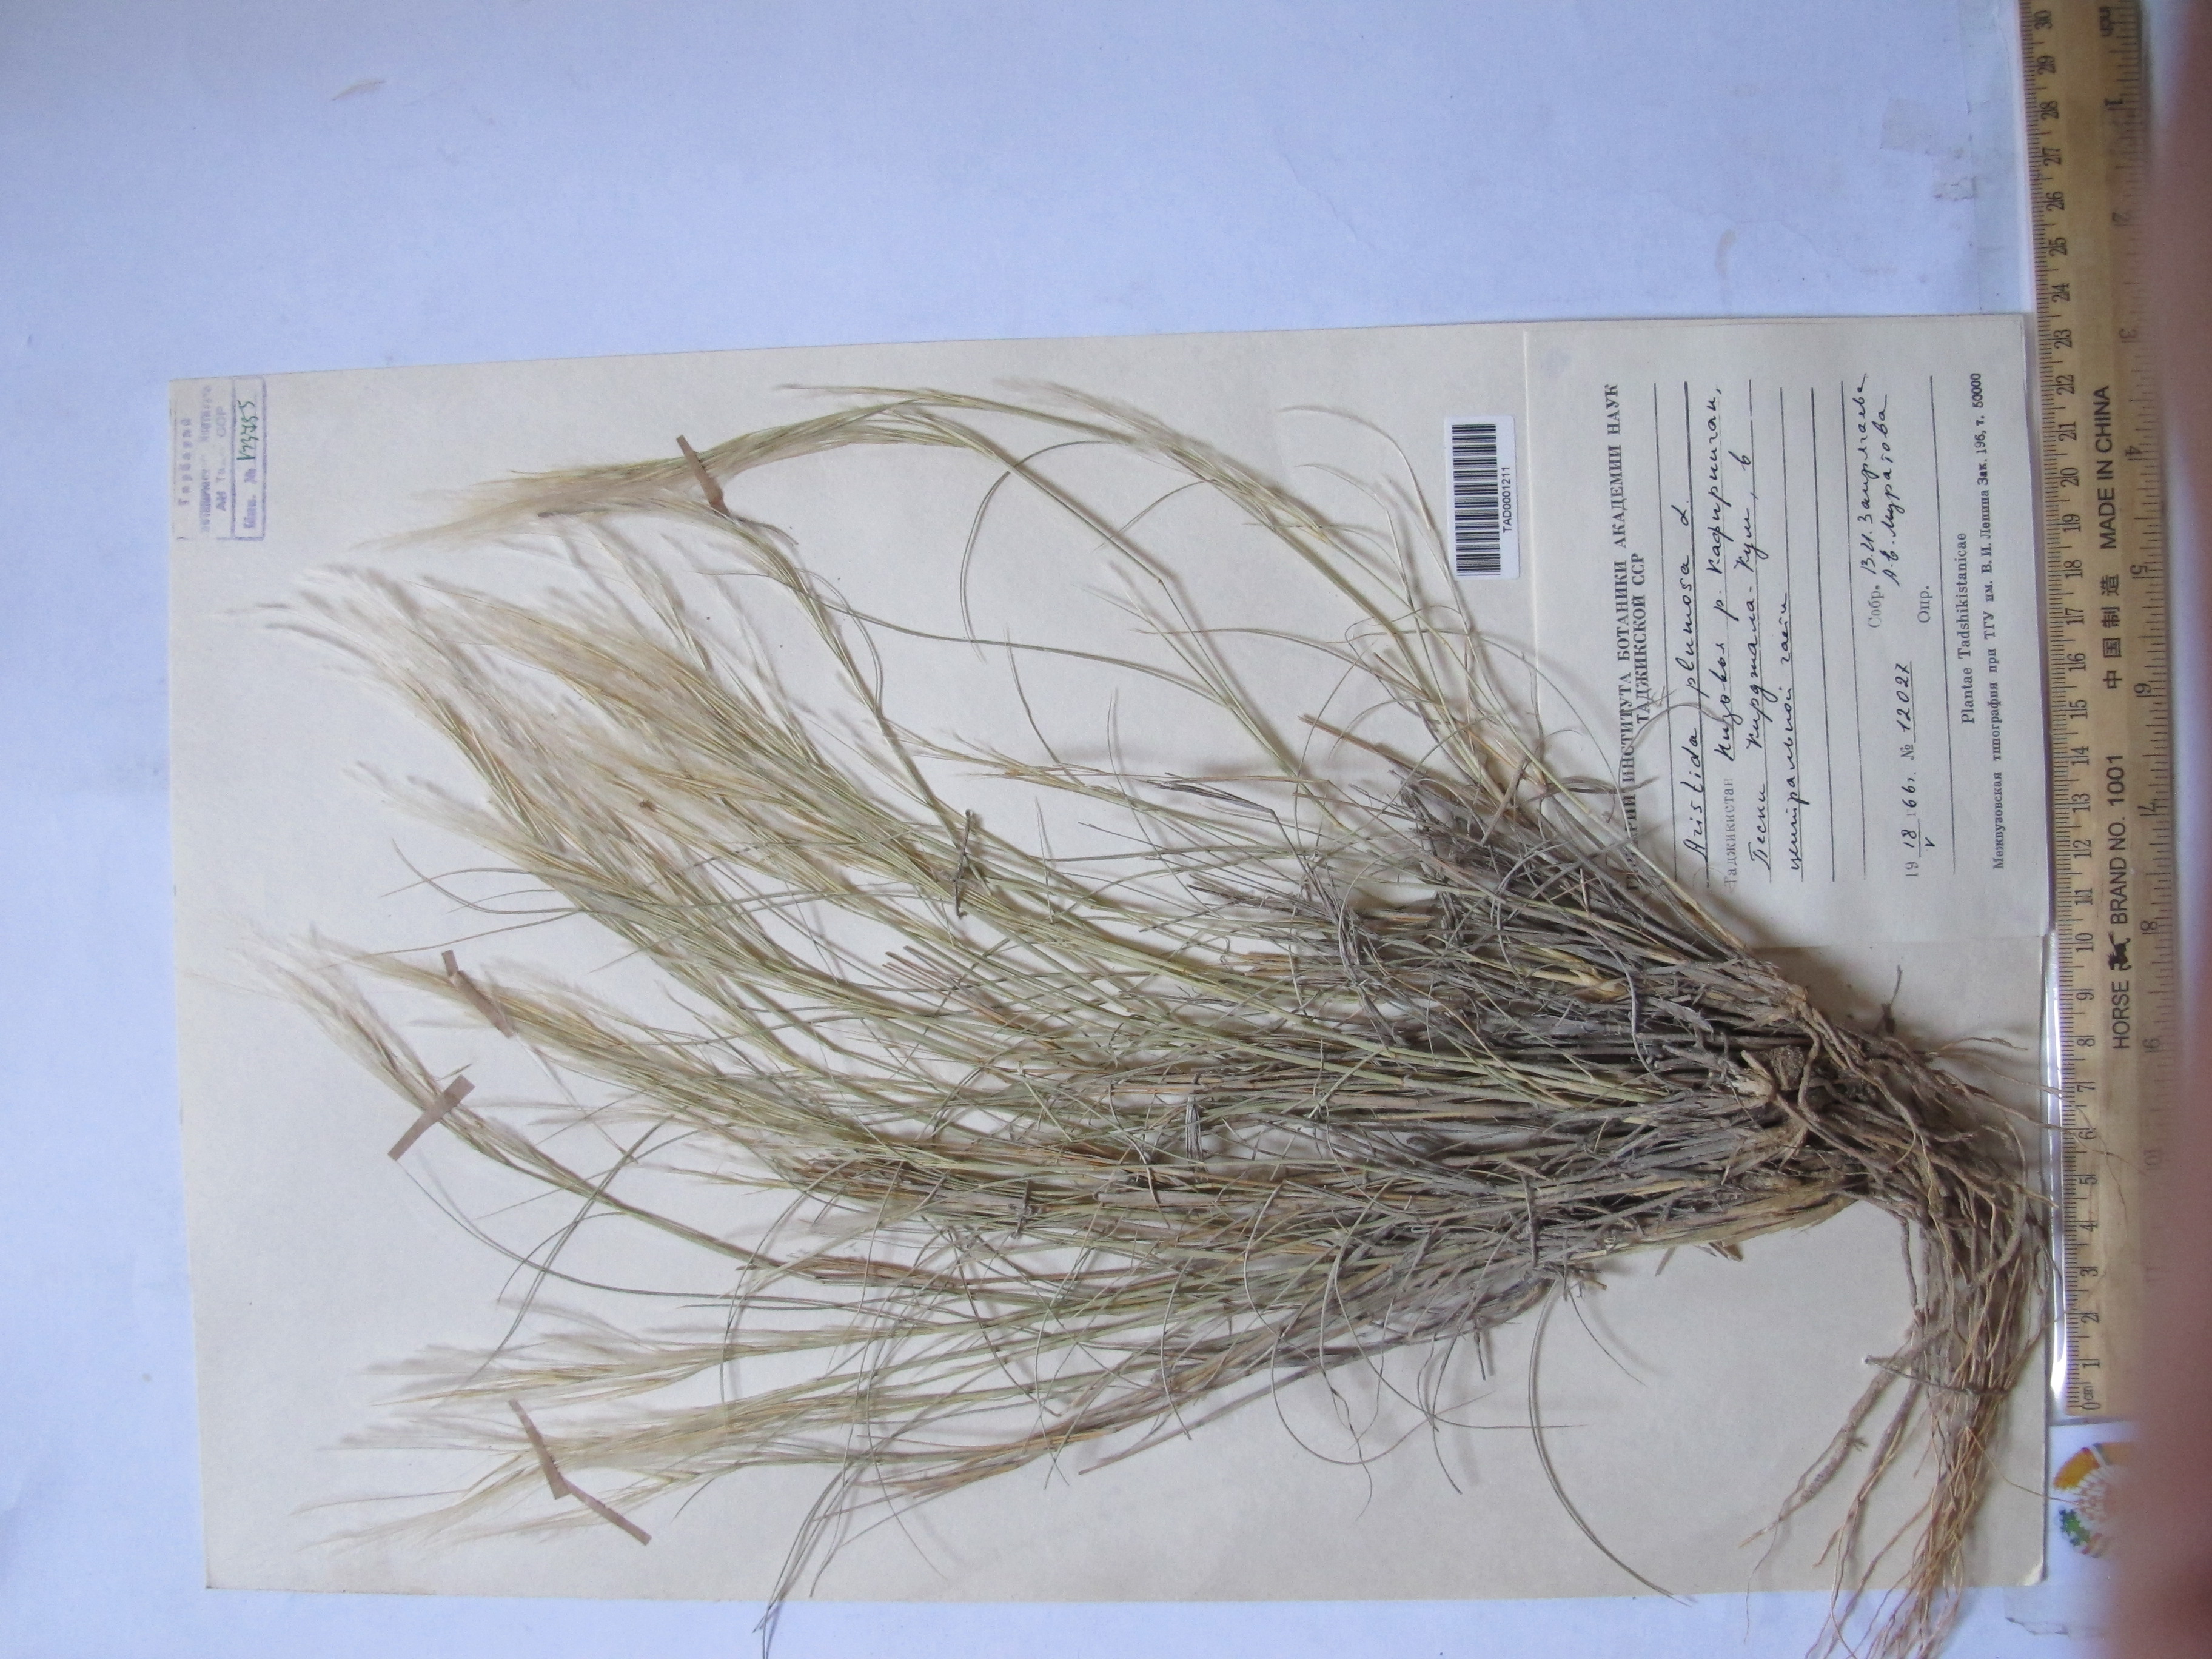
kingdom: Plantae
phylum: Tracheophyta
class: Liliopsida
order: Poales
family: Poaceae
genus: Stipagrostis
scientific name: Stipagrostis plumosa
